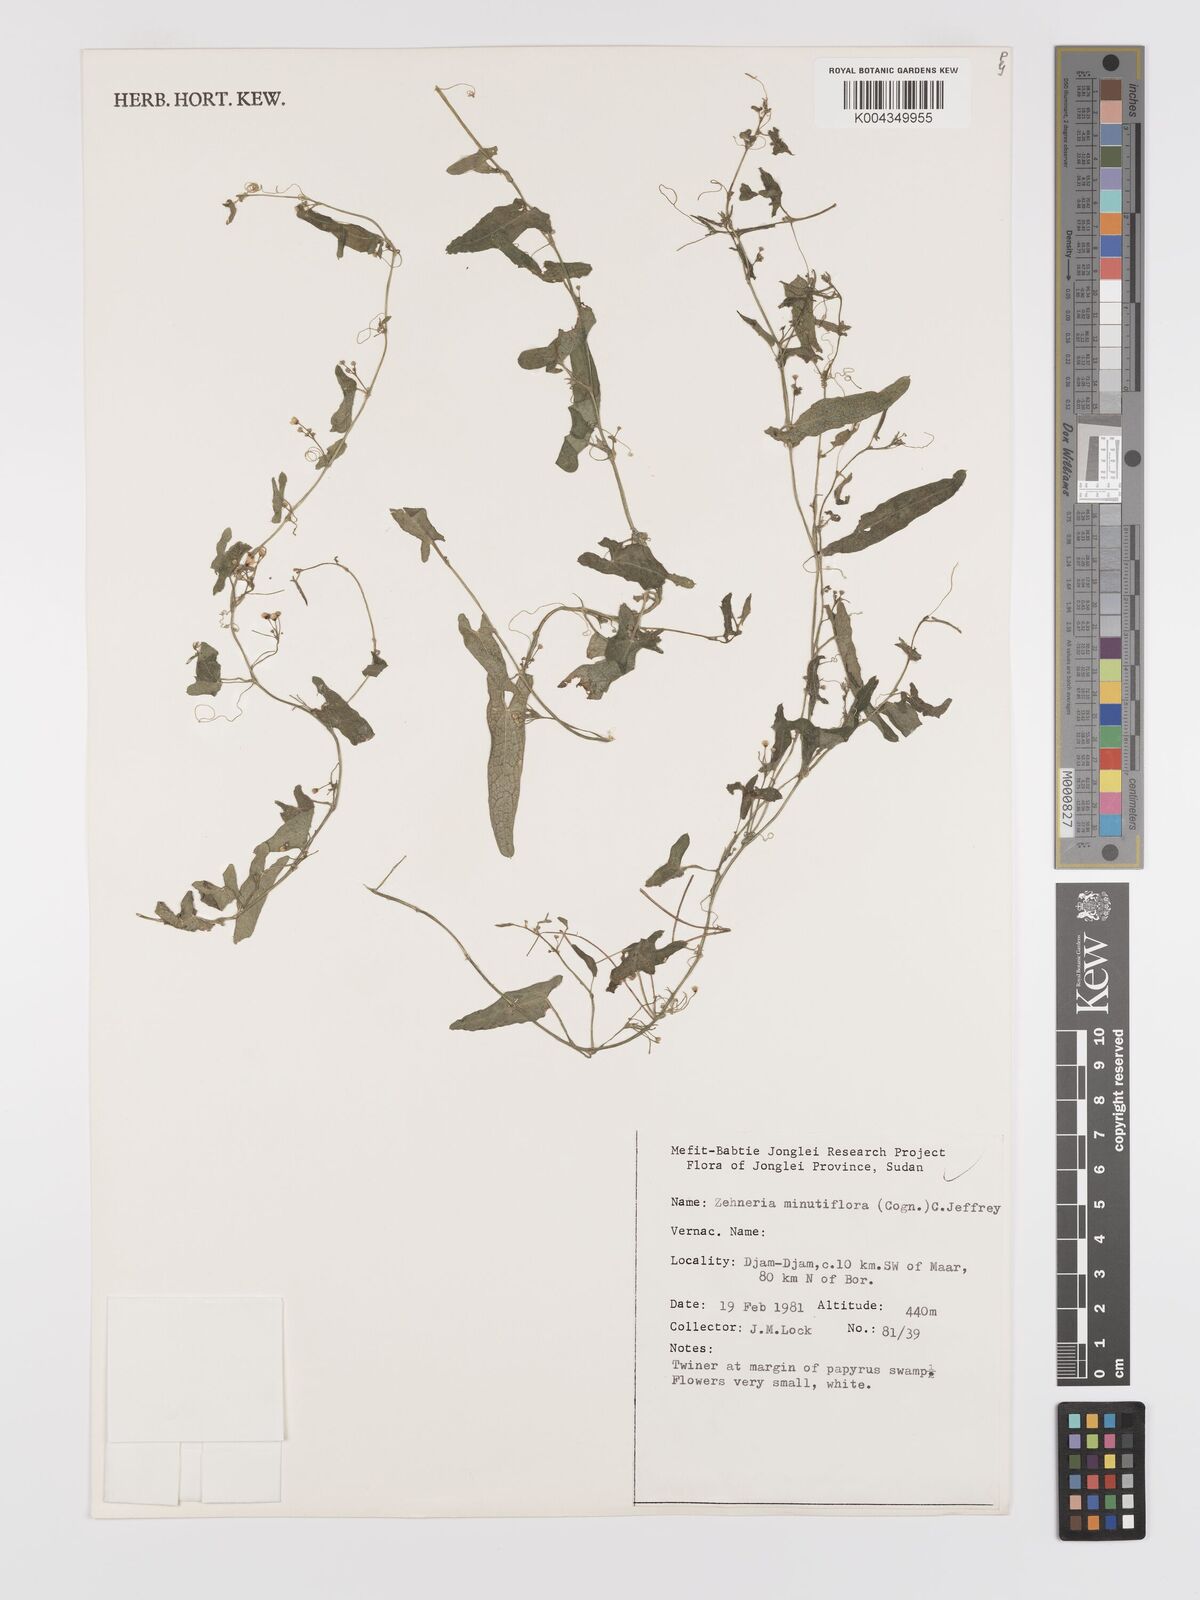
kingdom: Plantae
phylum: Tracheophyta
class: Magnoliopsida
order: Cucurbitales
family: Cucurbitaceae
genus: Zehneria
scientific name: Zehneria minutiflora
